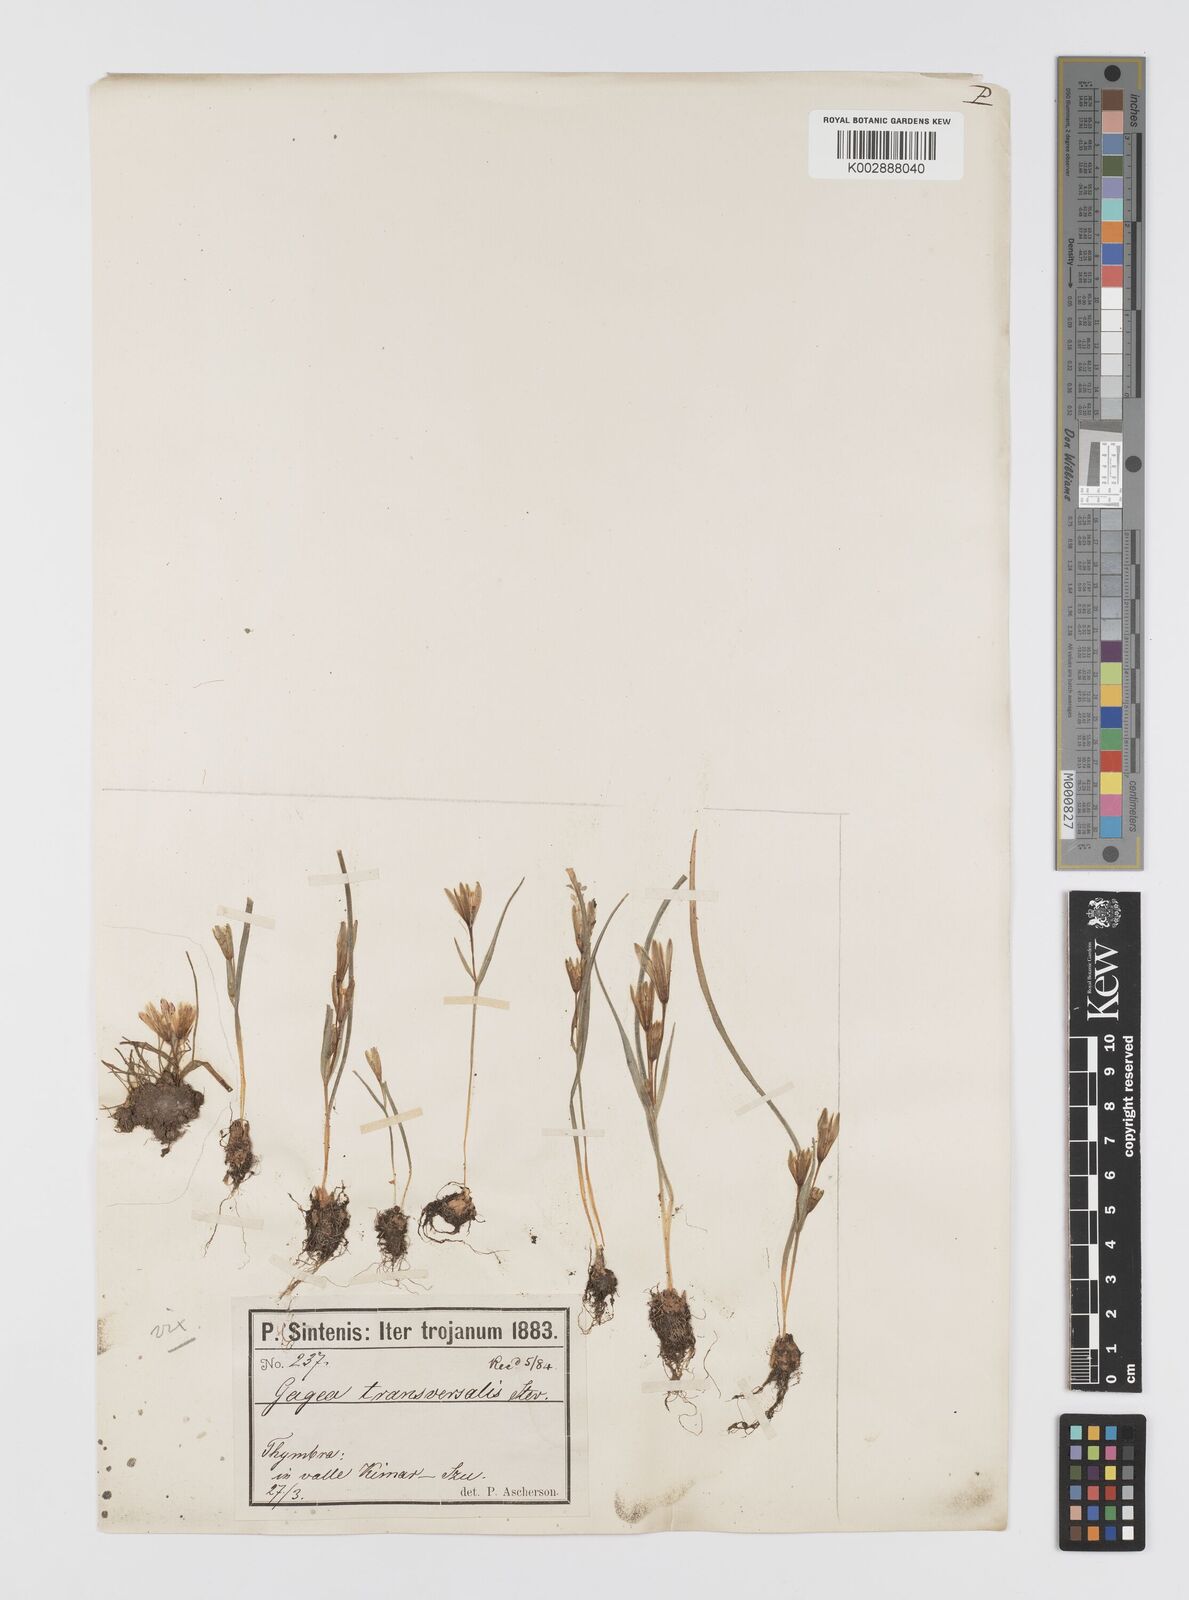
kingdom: Plantae
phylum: Tracheophyta
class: Liliopsida
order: Liliales
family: Liliaceae
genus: Gagea
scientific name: Gagea transversalis
